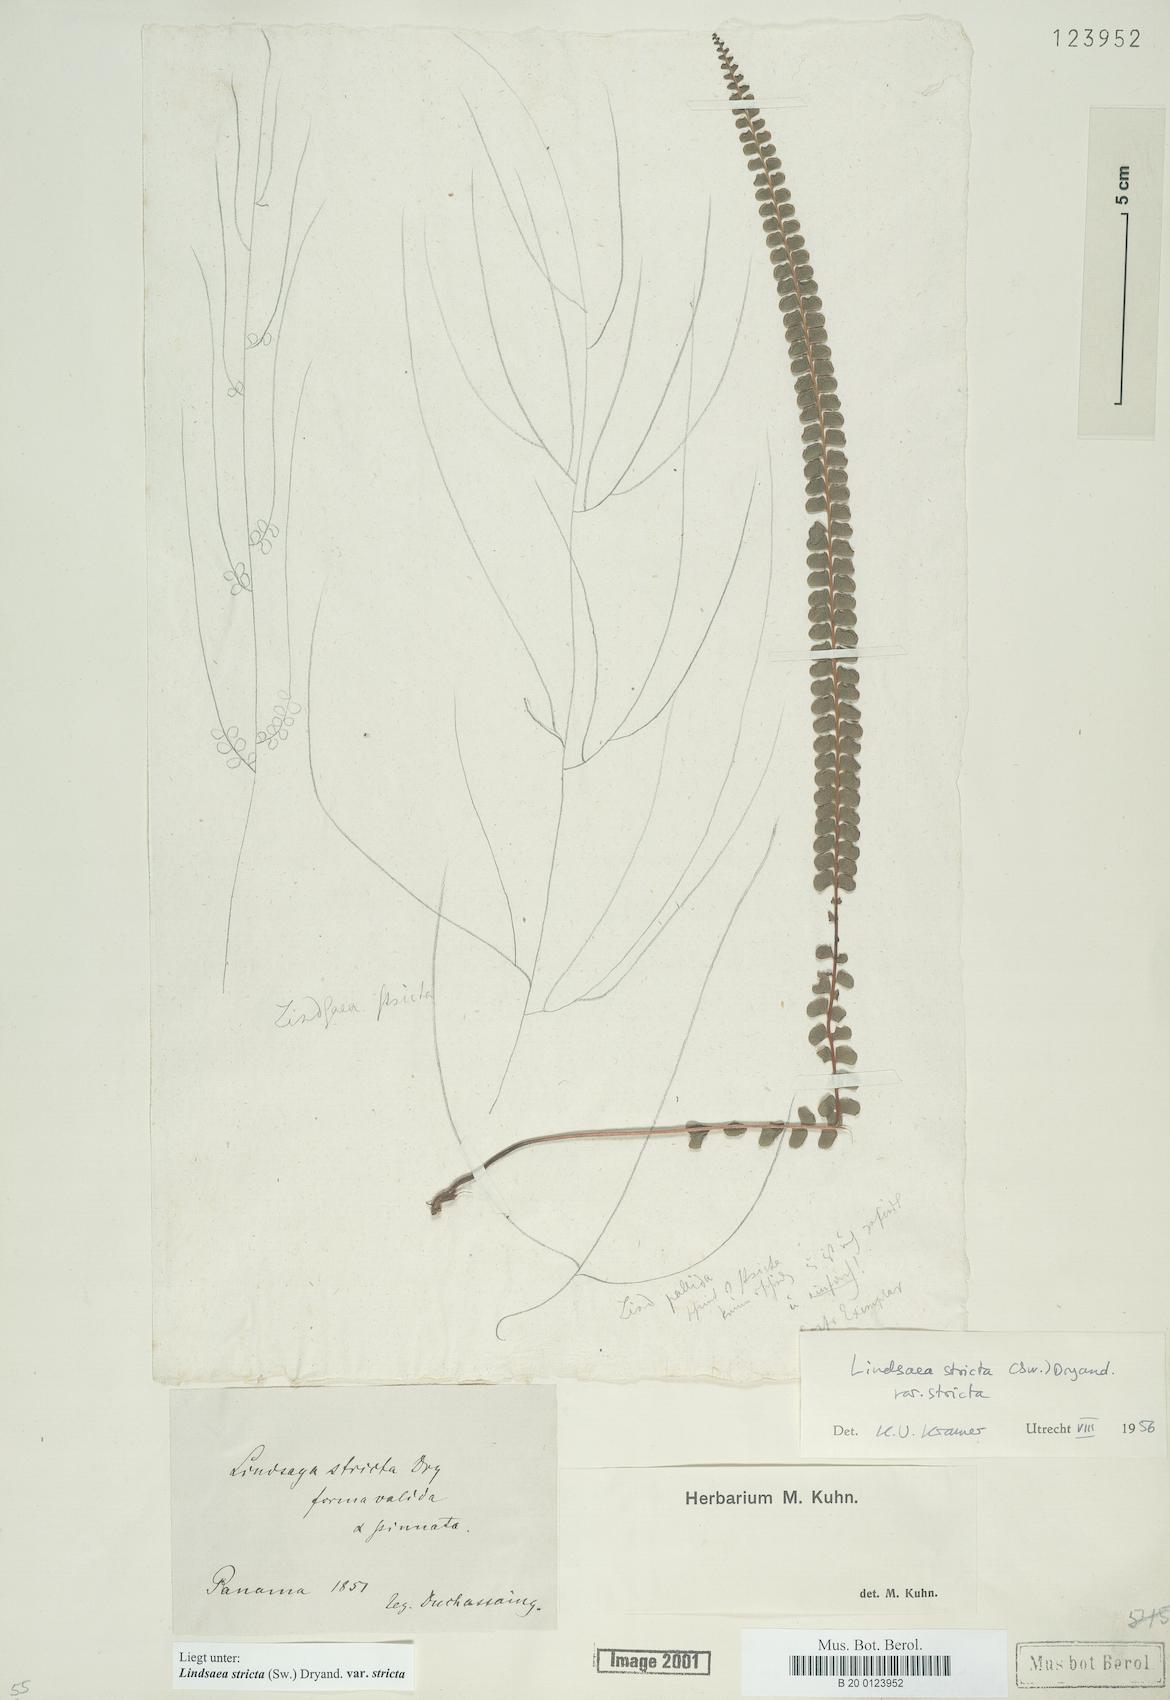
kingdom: Plantae
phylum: Tracheophyta
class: Polypodiopsida
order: Polypodiales
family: Lindsaeaceae
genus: Lindsaea
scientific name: Lindsaea stricta
